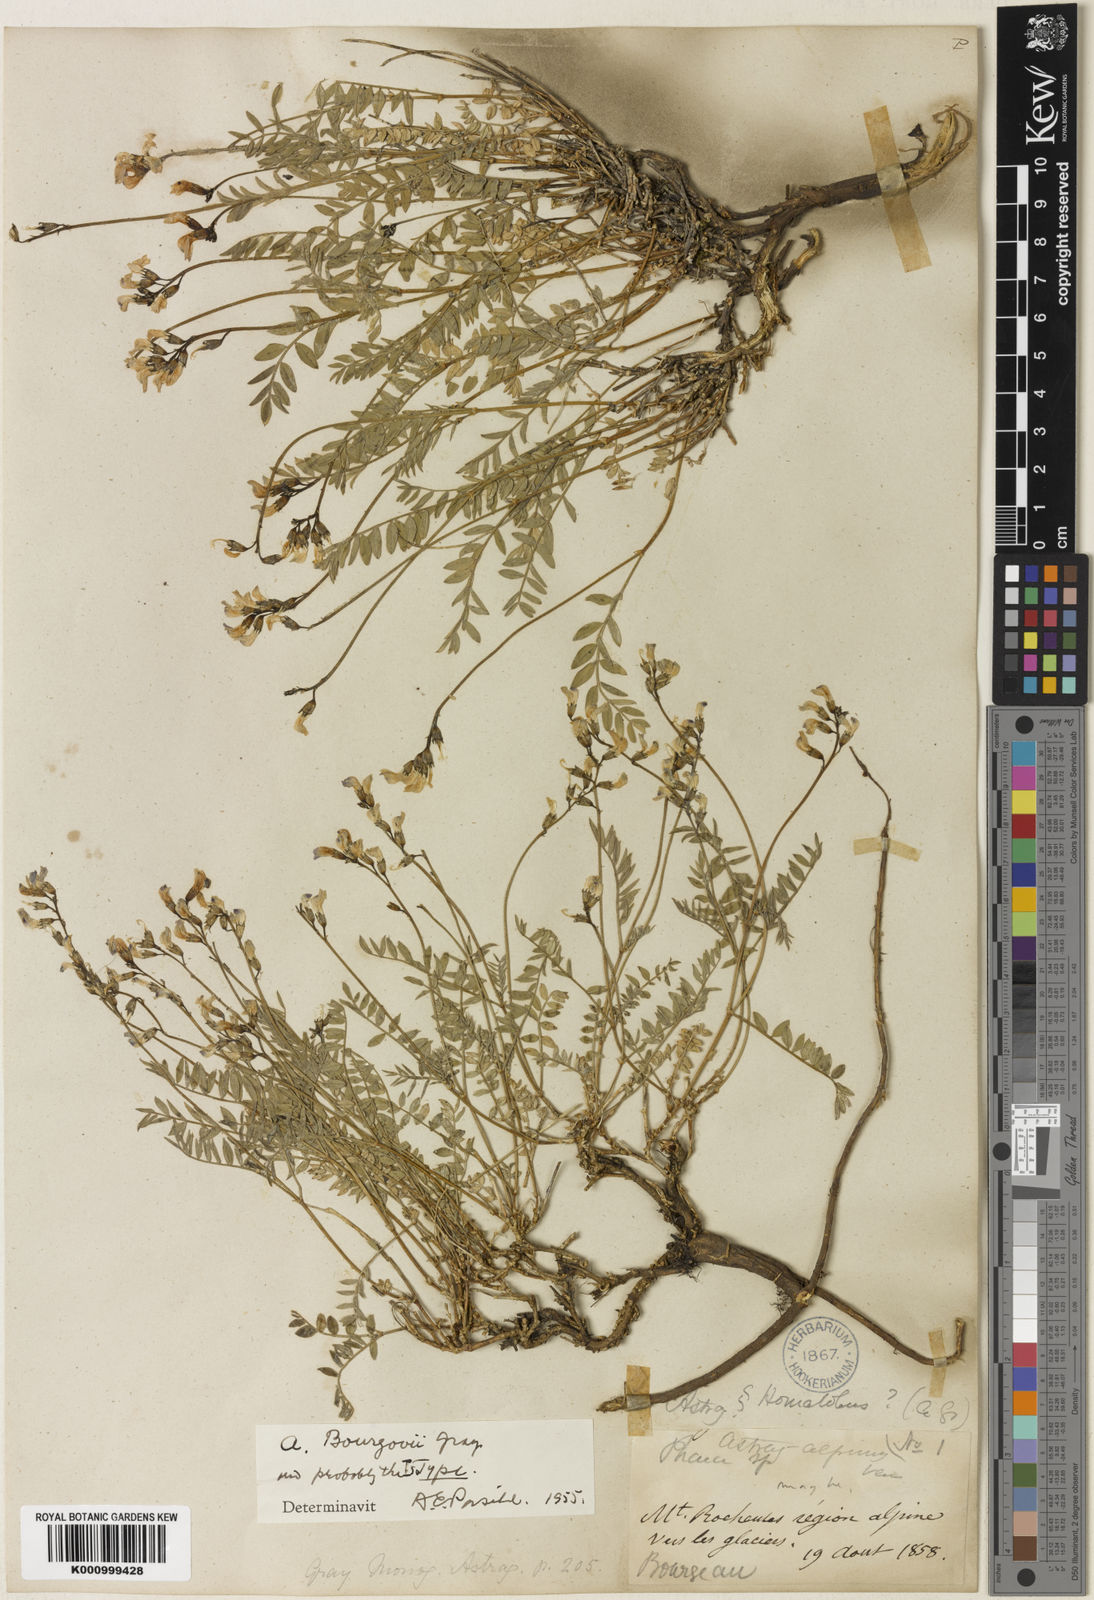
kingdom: Plantae
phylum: Tracheophyta
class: Magnoliopsida
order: Fabales
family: Fabaceae
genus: Astragalus
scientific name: Astragalus bourgovii
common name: Bourgeau's milk-vetch
